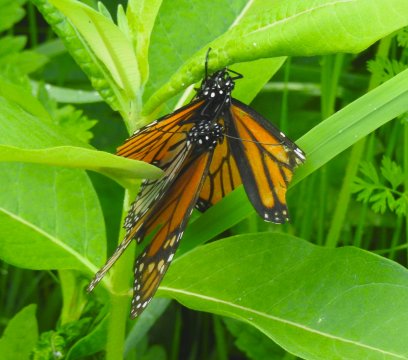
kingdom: Animalia
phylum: Arthropoda
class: Insecta
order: Lepidoptera
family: Nymphalidae
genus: Danaus
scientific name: Danaus plexippus
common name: Monarch
